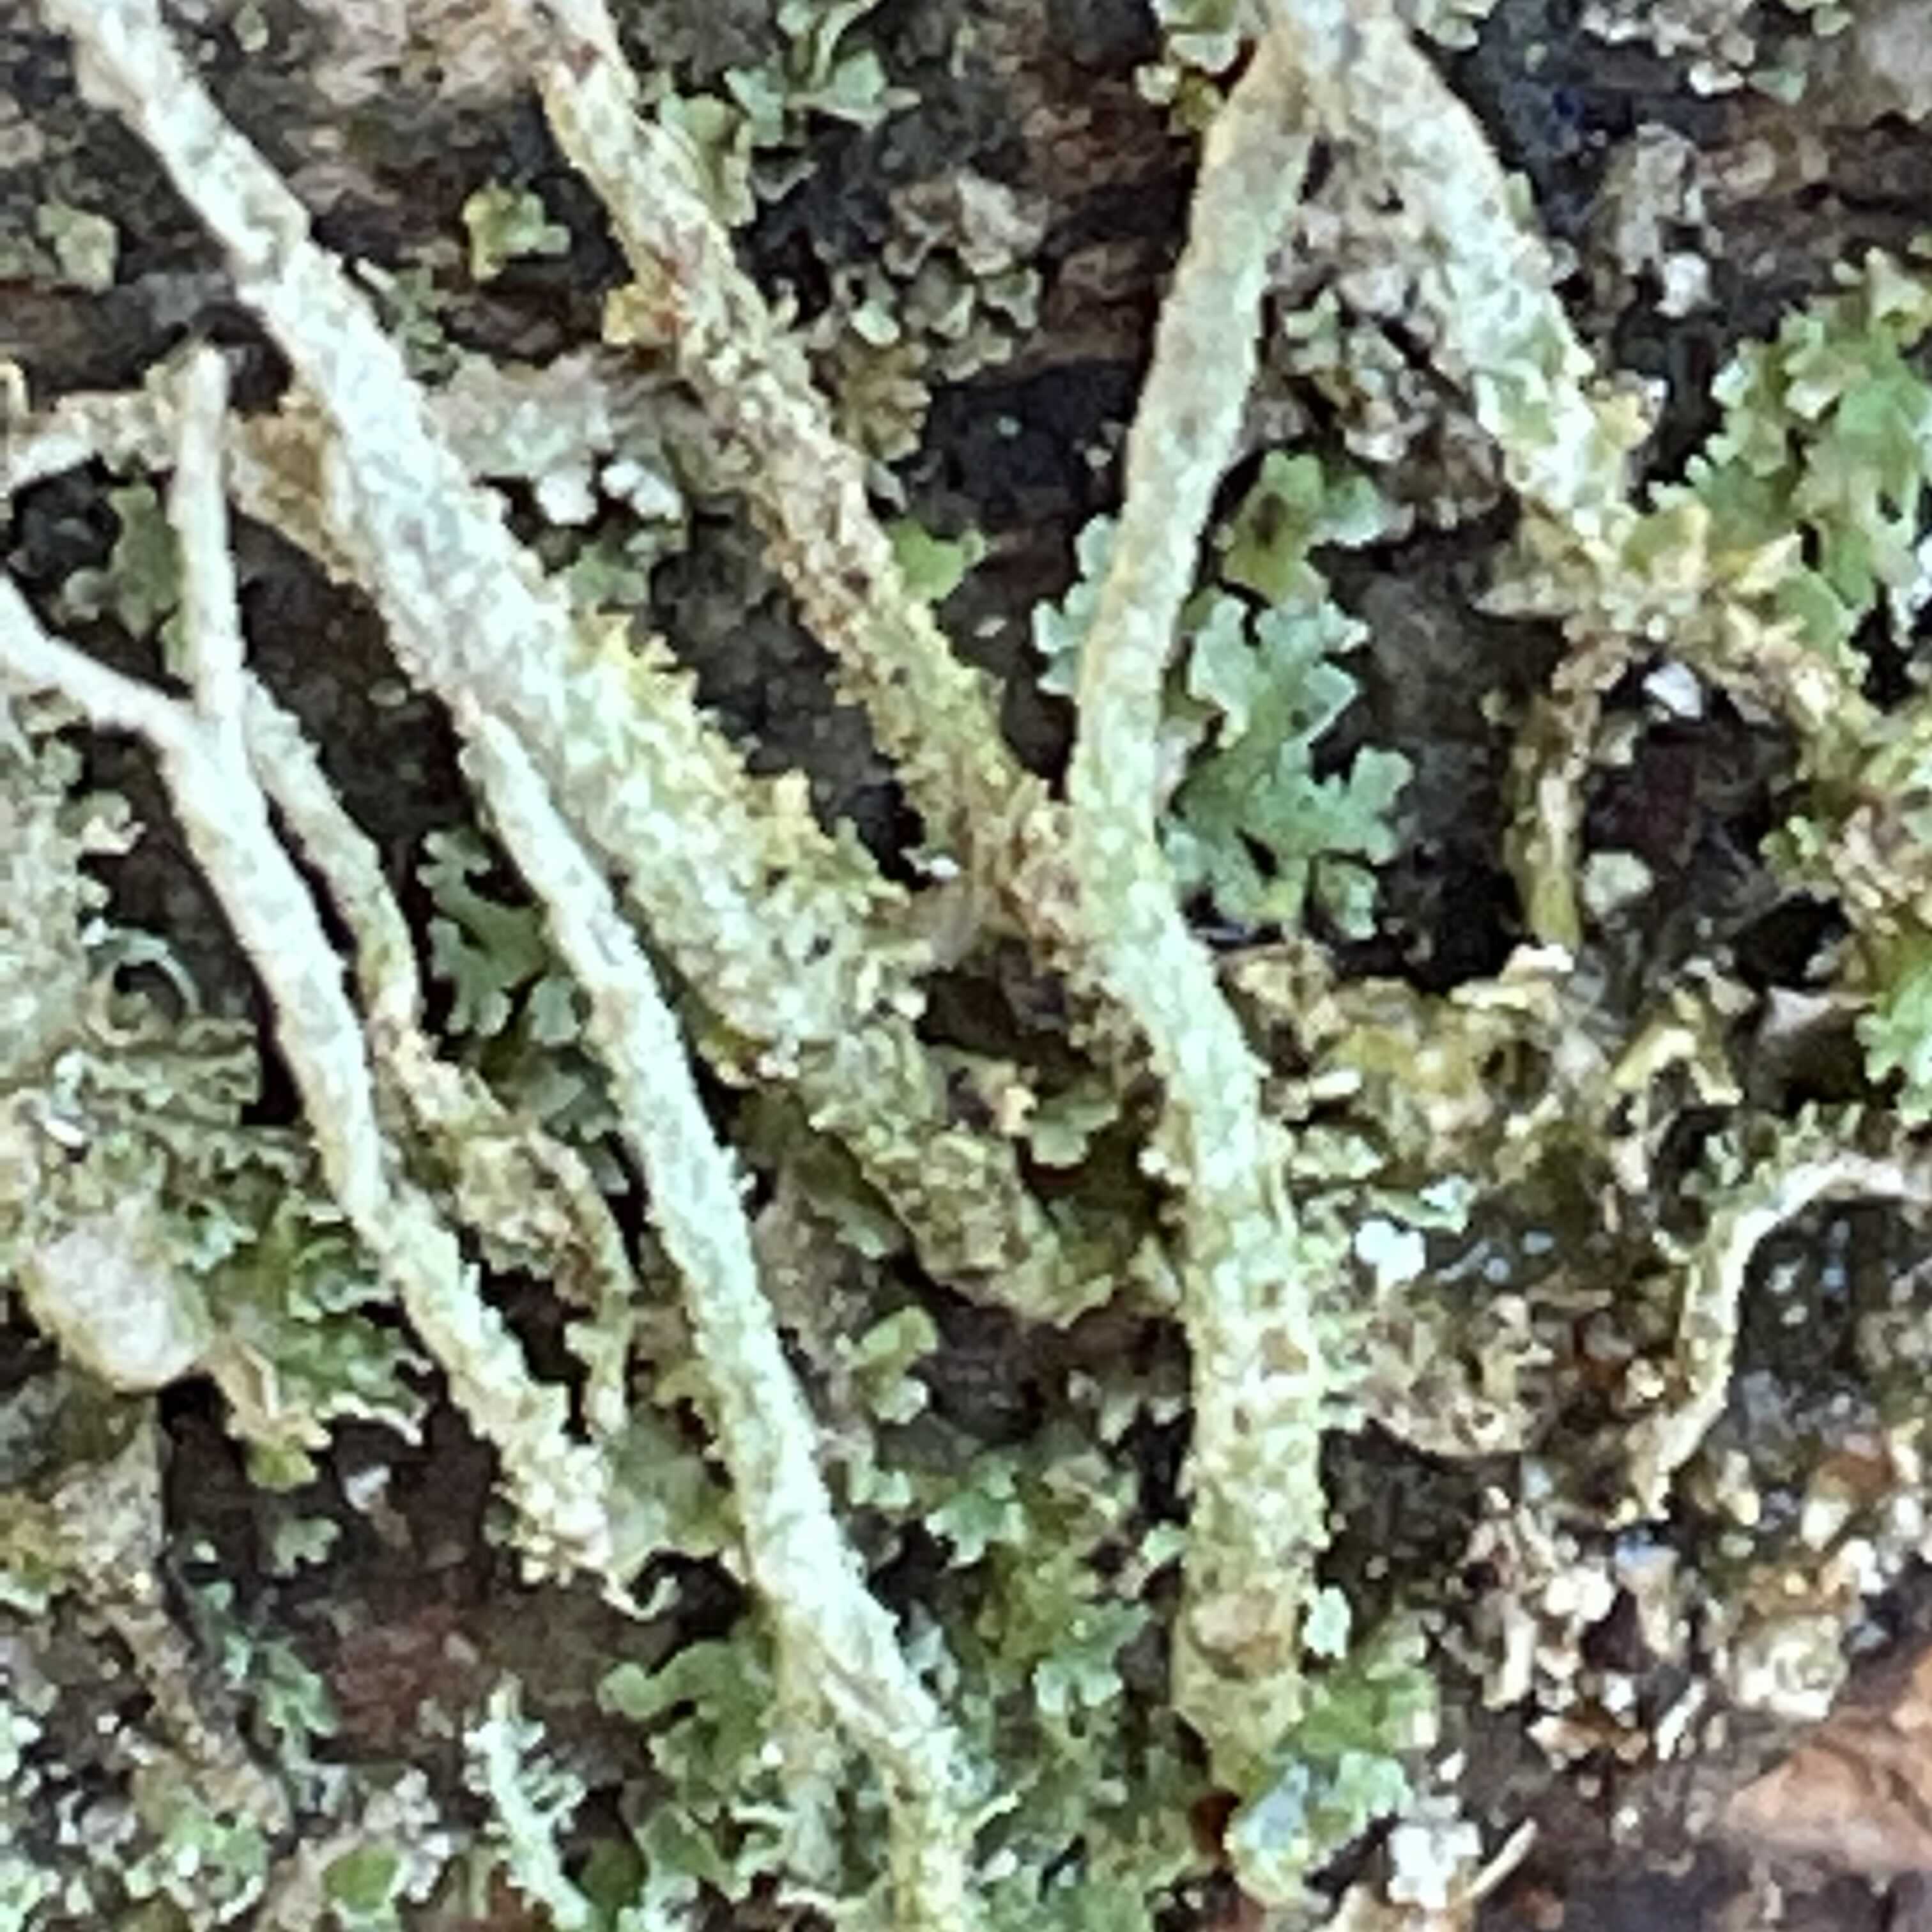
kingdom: Fungi
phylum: Ascomycota
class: Lecanoromycetes
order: Lecanorales
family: Cladoniaceae
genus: Cladonia
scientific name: Cladonia glauca
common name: grågrøn bægerlav
